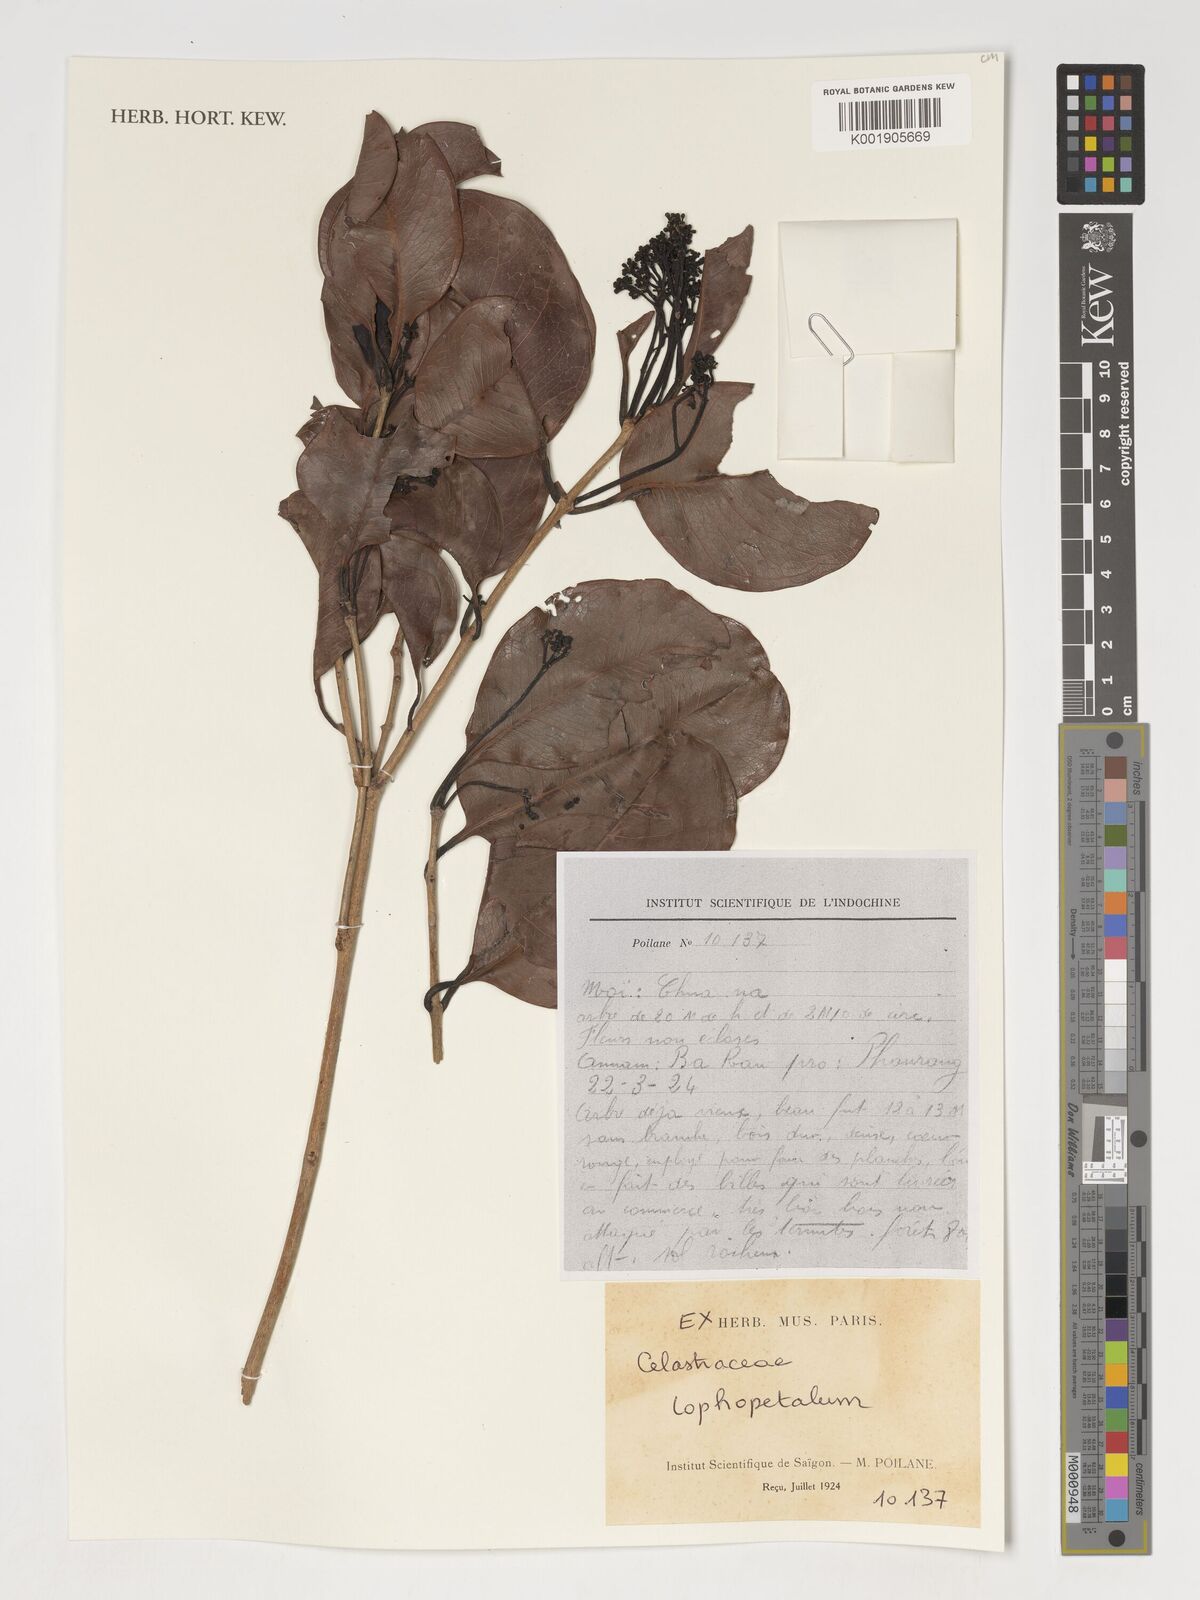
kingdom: Plantae
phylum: Tracheophyta
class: Magnoliopsida
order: Celastrales
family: Celastraceae
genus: Lophopetalum
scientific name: Lophopetalum
